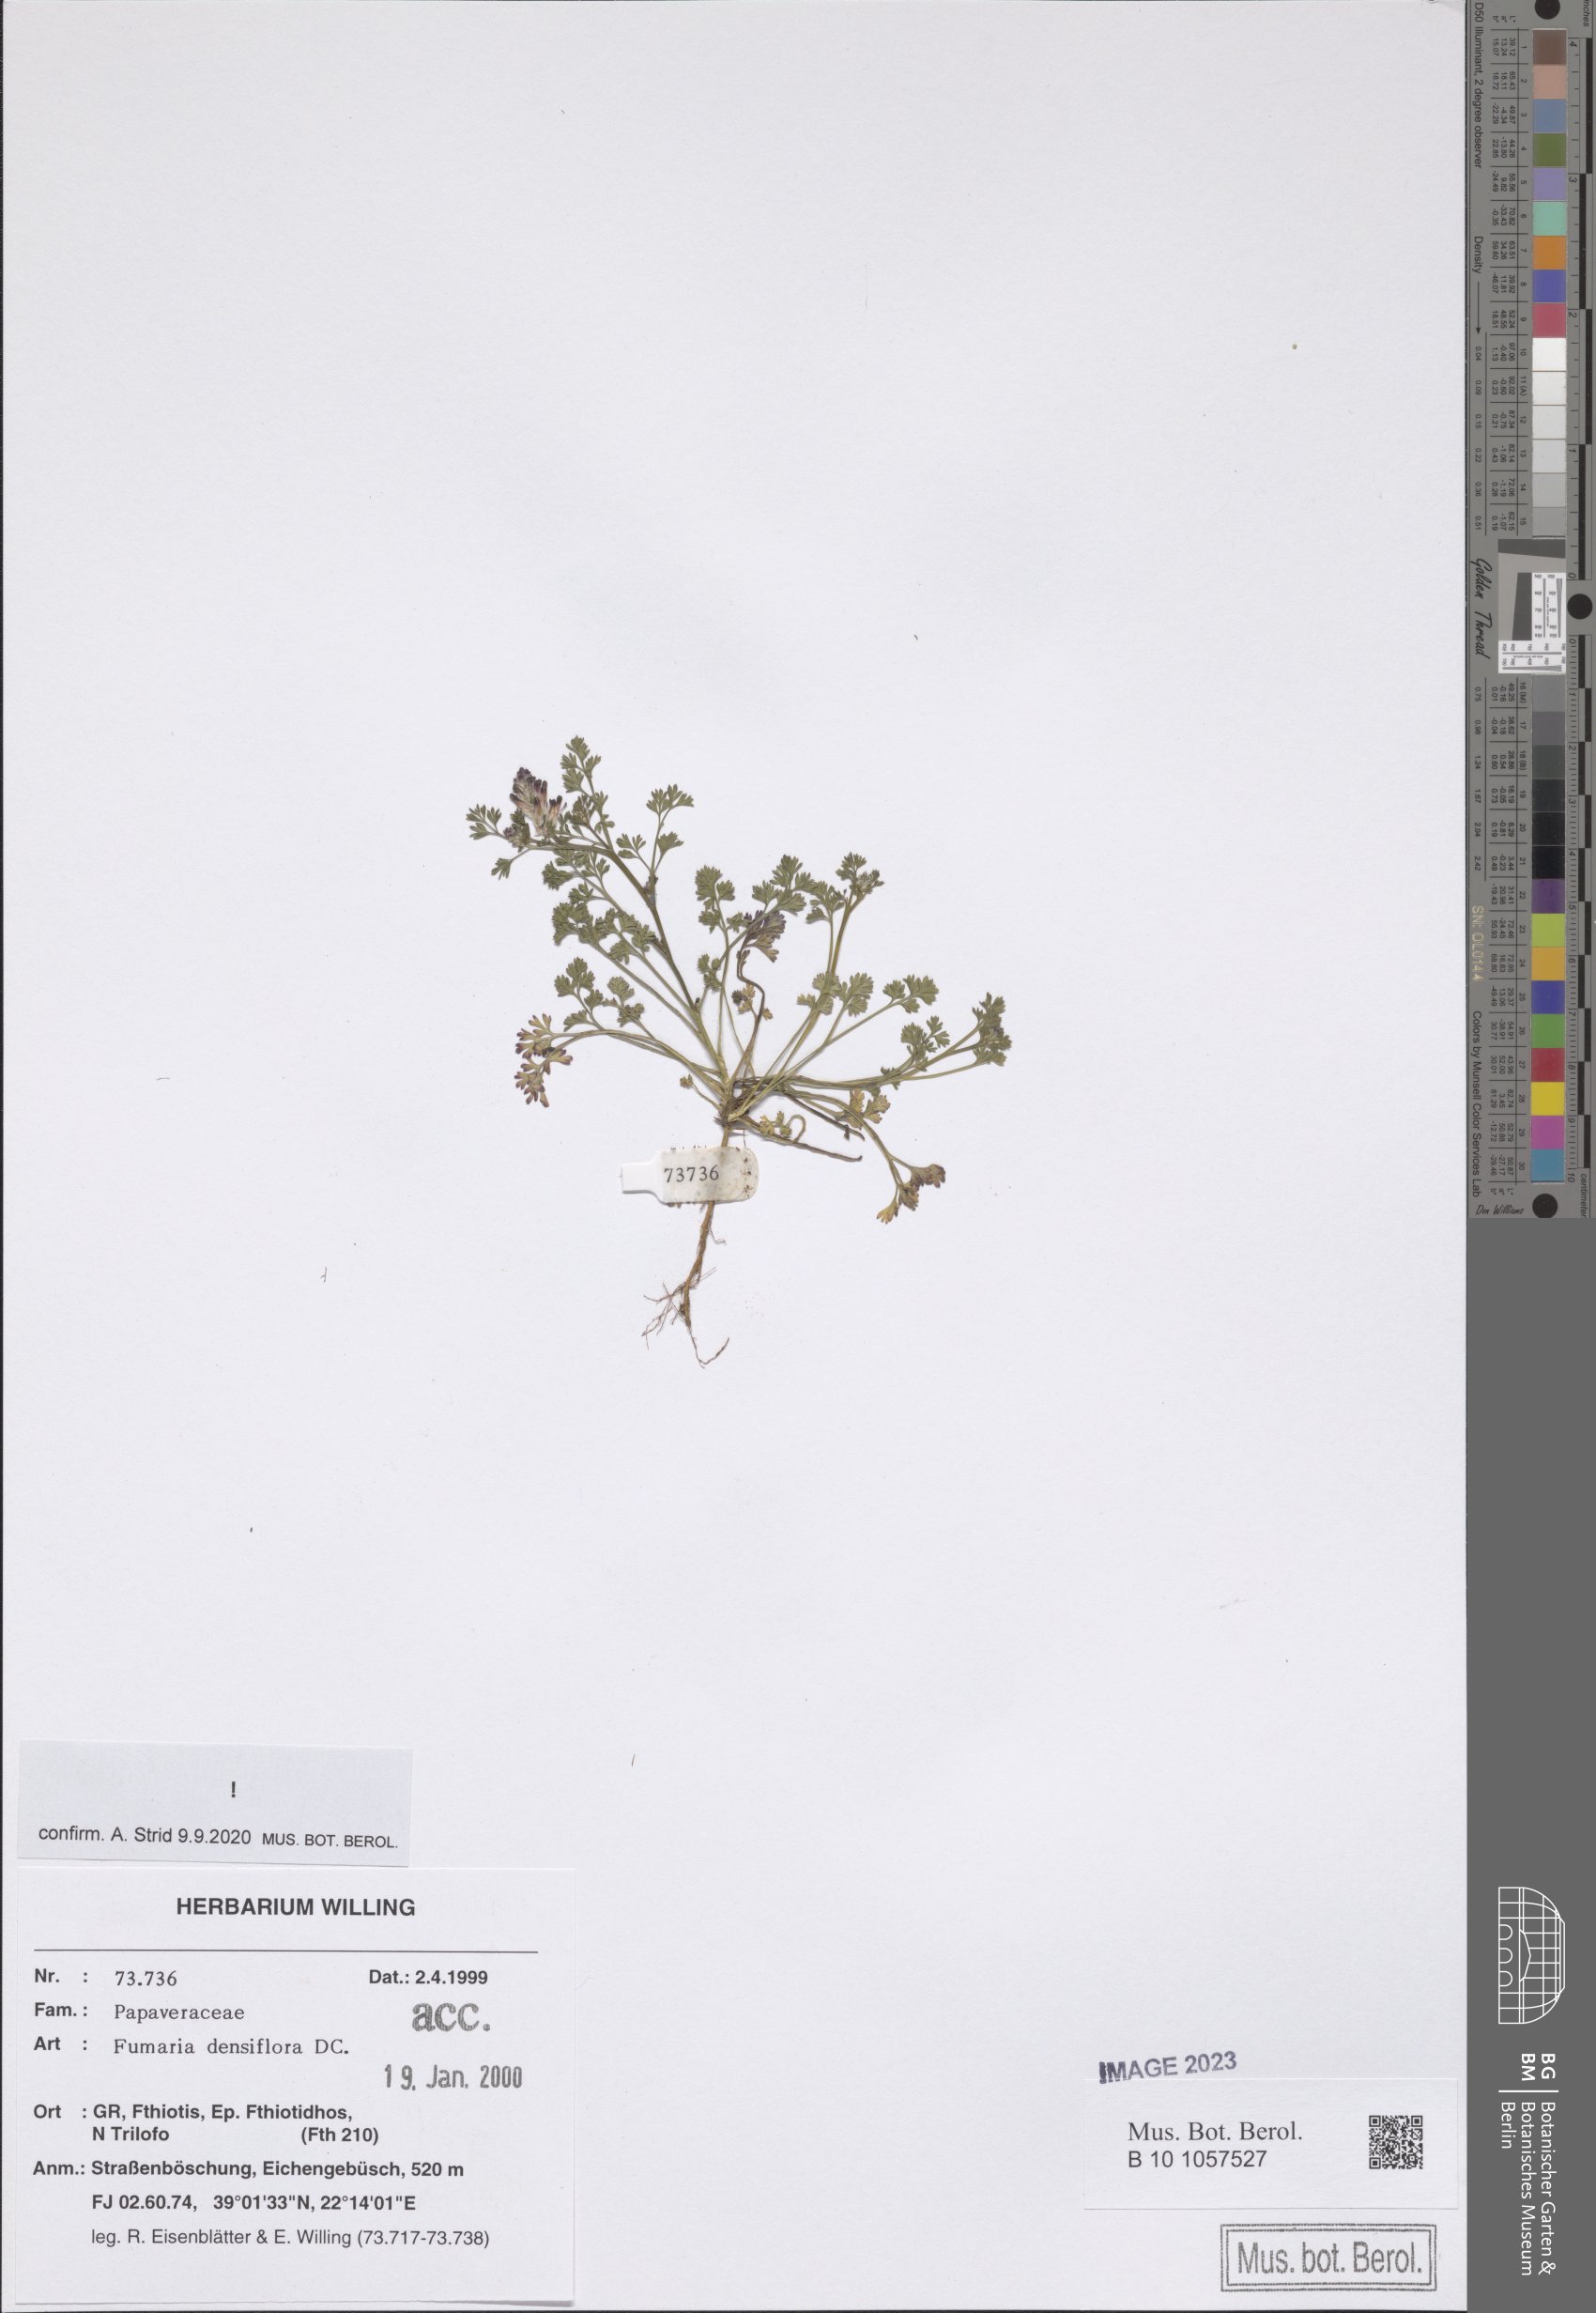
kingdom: Plantae
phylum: Tracheophyta
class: Magnoliopsida
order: Ranunculales
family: Papaveraceae
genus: Fumaria
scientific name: Fumaria densiflora
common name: Dense-flowered fumitory
